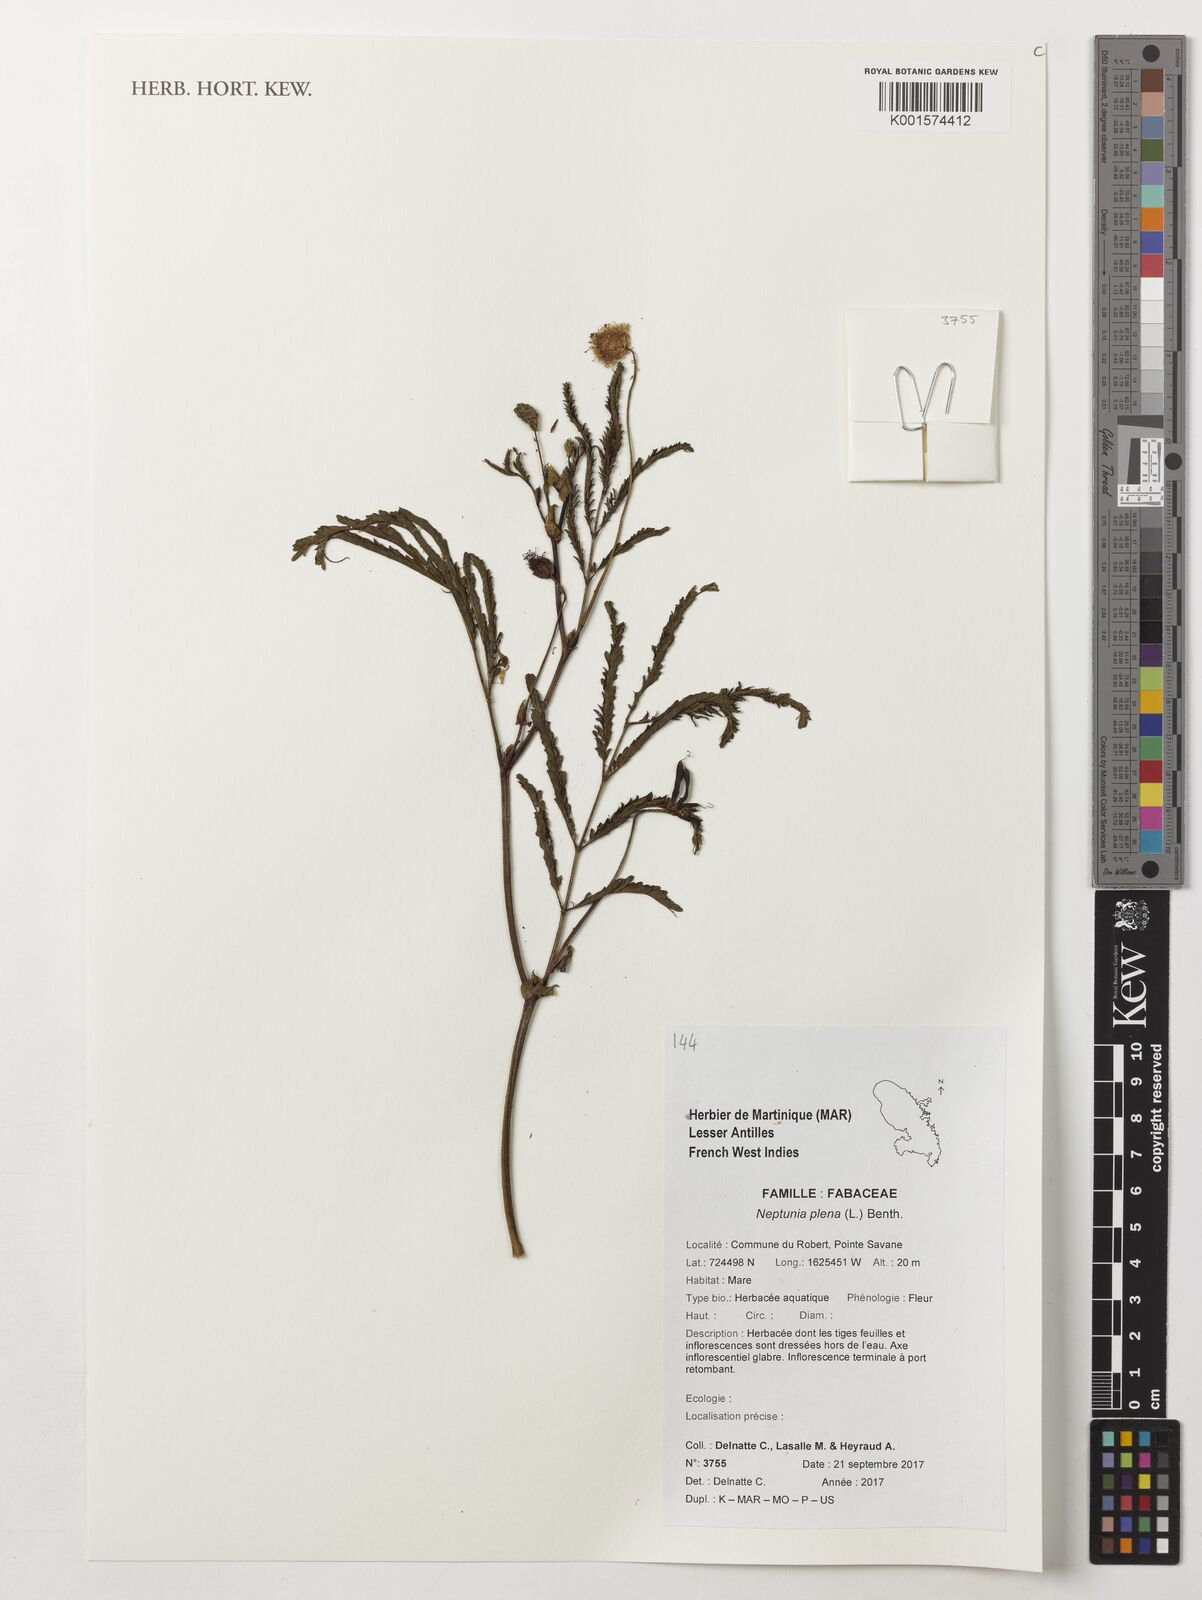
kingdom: Plantae
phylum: Tracheophyta
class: Magnoliopsida
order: Fabales
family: Fabaceae
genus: Neptunia
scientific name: Neptunia plena
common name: Dead and awake
